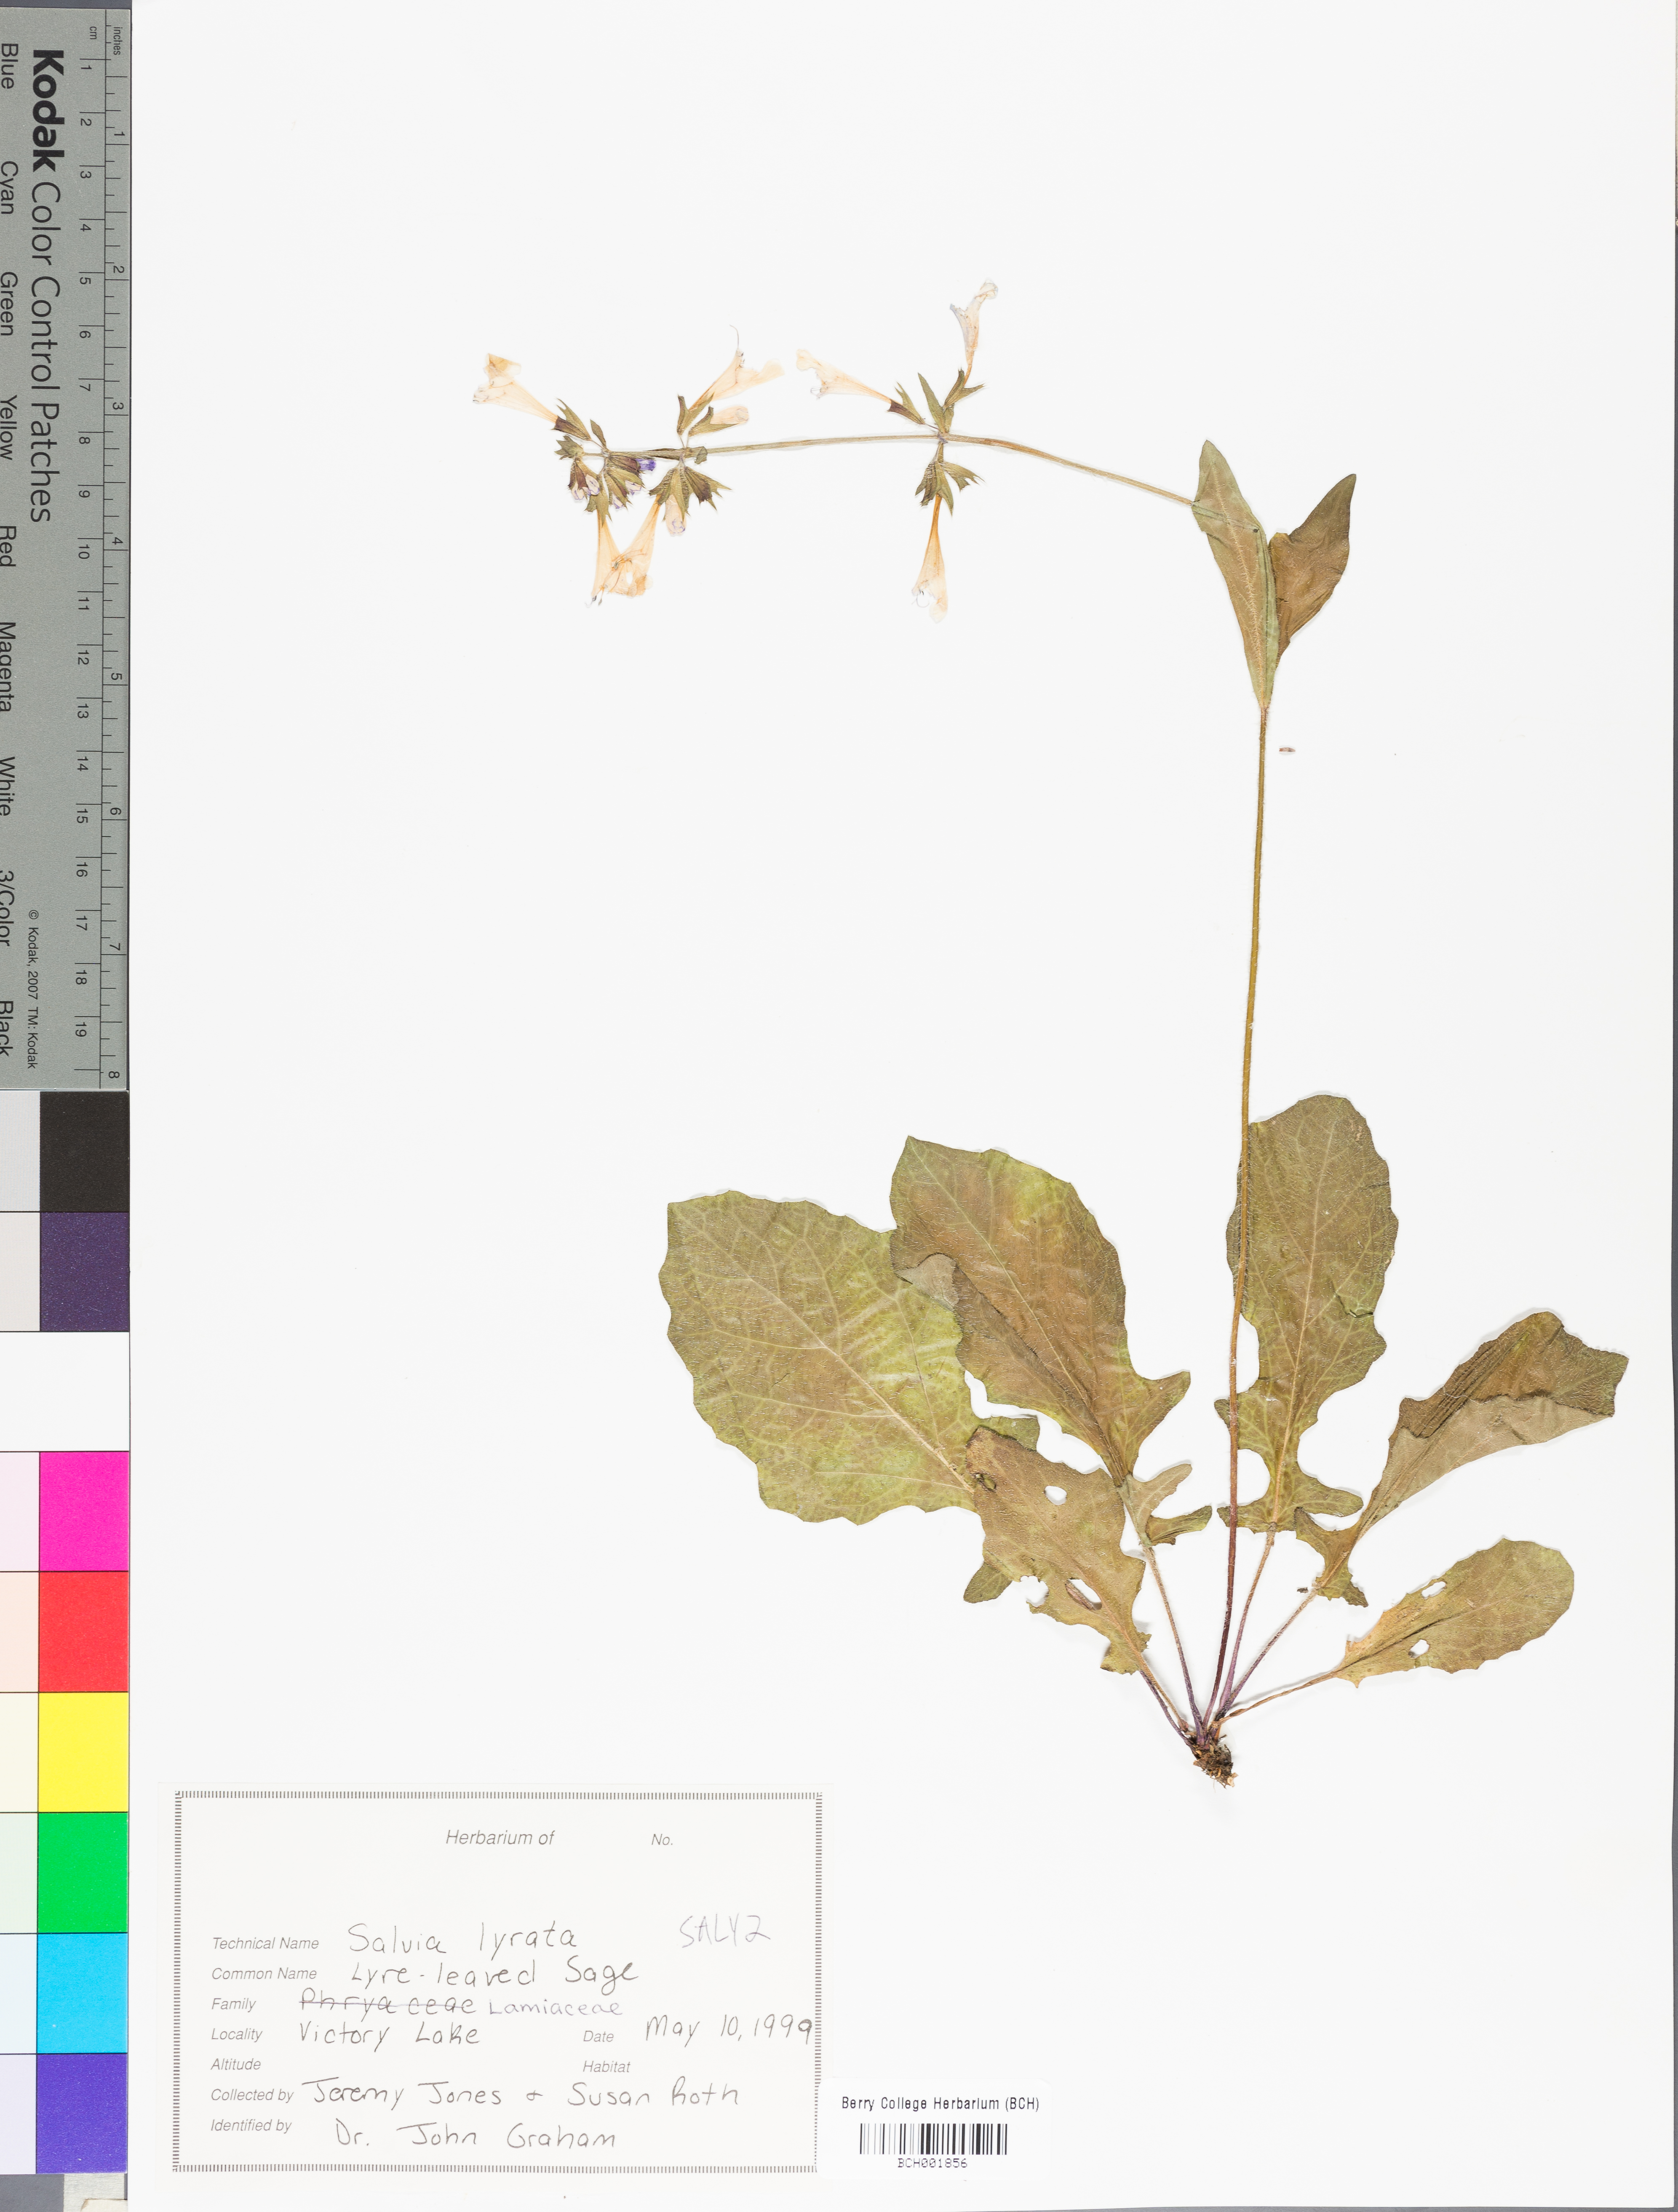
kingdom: Plantae
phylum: Tracheophyta
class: Magnoliopsida
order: Lamiales
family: Lamiaceae
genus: Salvia
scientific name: Salvia lyrata
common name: Cancerweed
